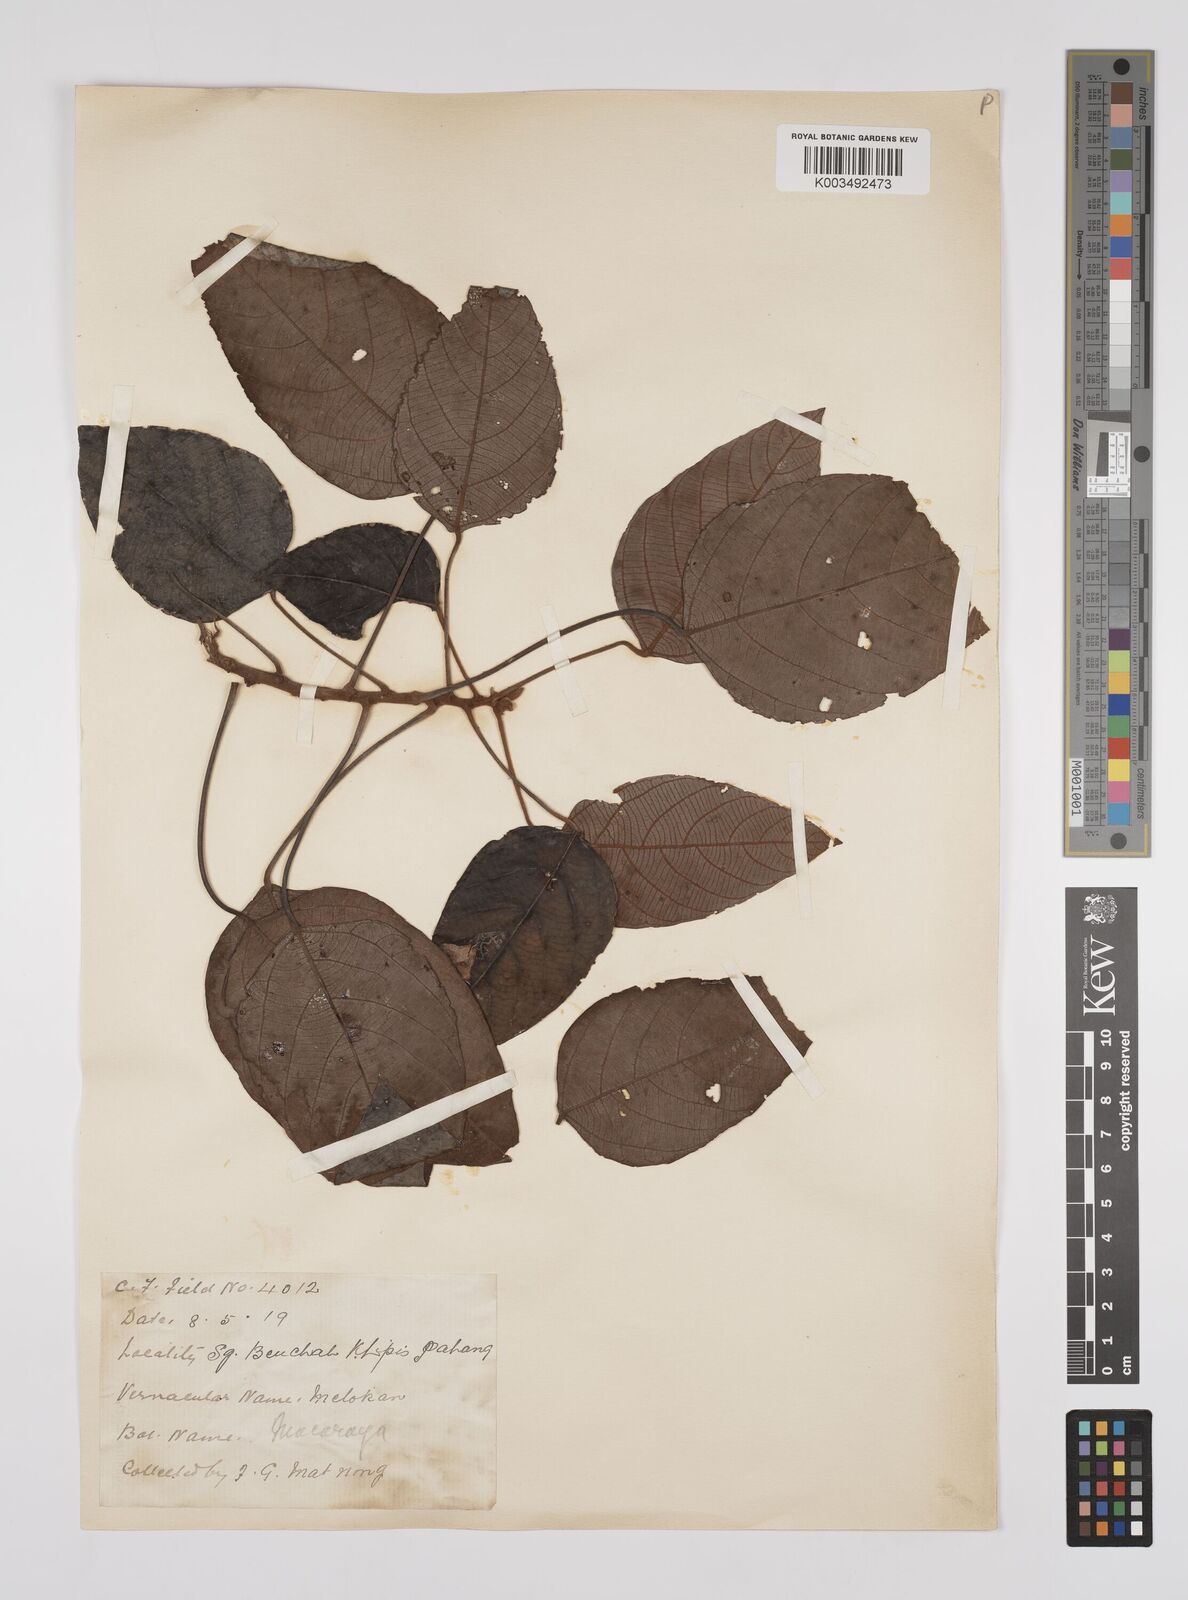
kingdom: Plantae
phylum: Tracheophyta
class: Magnoliopsida
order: Malpighiales
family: Euphorbiaceae
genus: Macaranga
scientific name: Macaranga heynei
